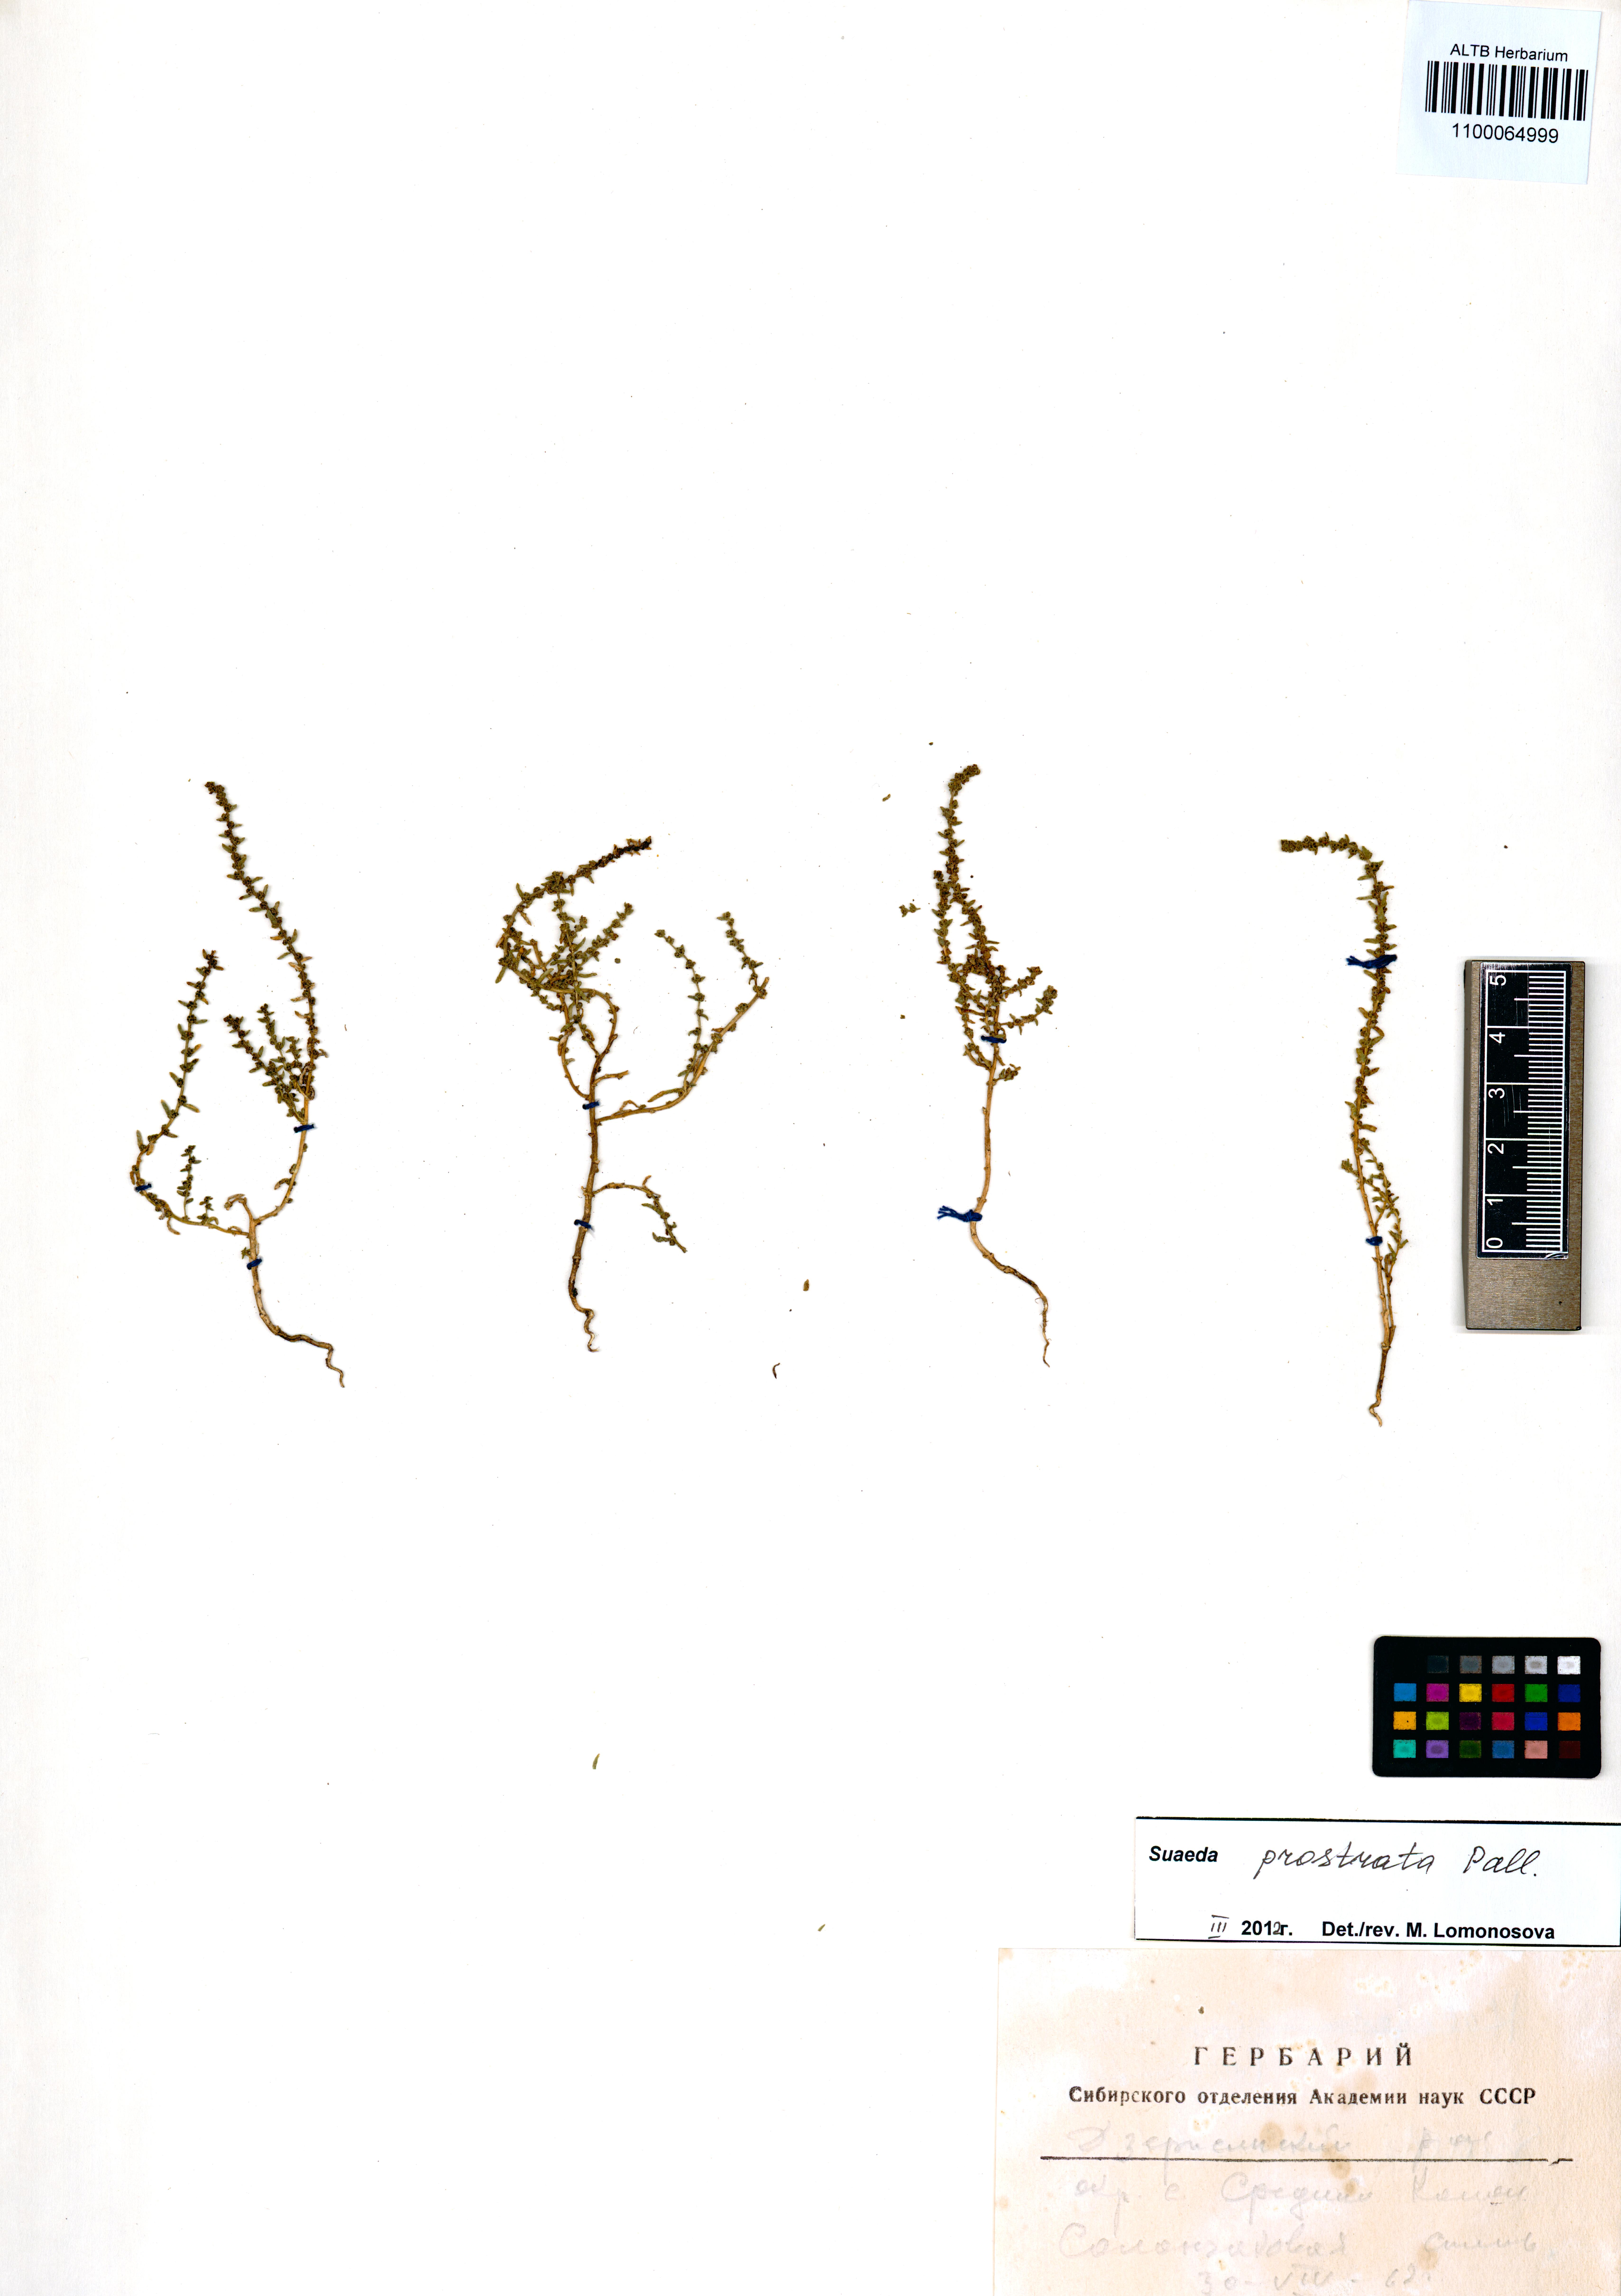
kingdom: Plantae
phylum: Tracheophyta
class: Magnoliopsida
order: Caryophyllales
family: Amaranthaceae
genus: Suaeda
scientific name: Suaeda prostrata
